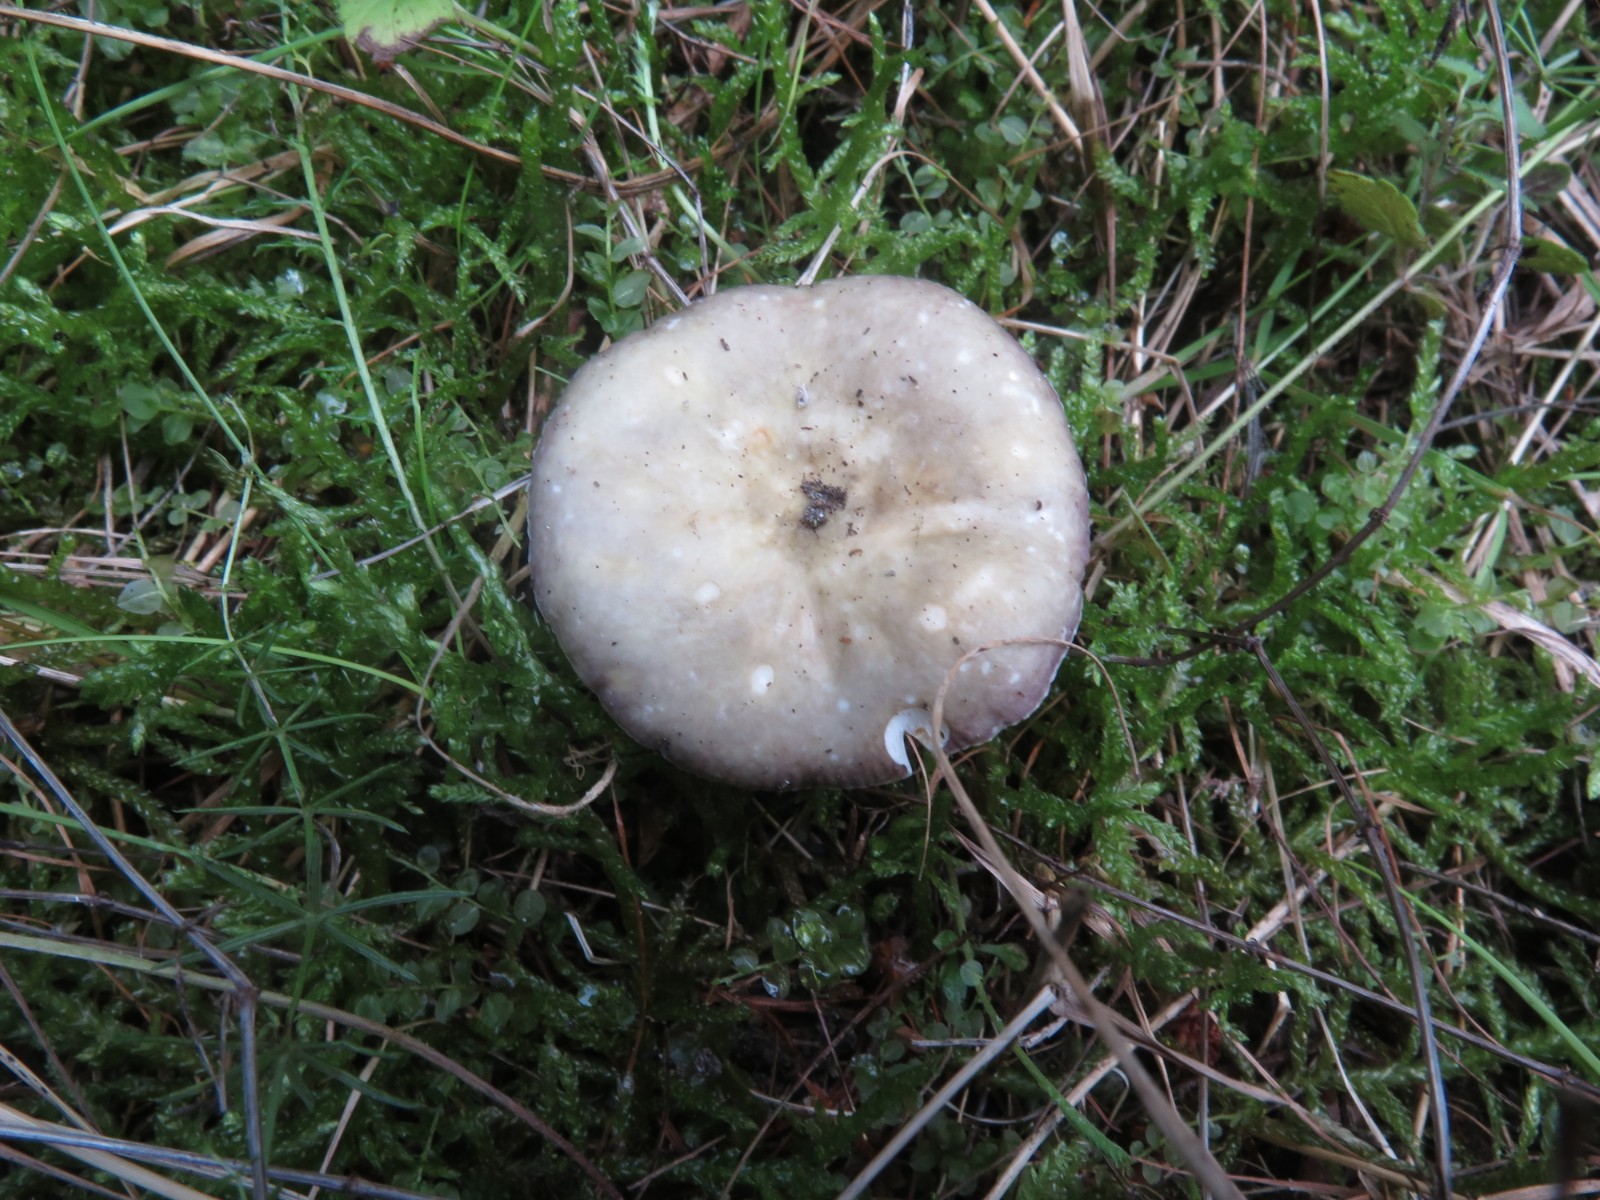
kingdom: Fungi
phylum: Basidiomycota
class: Agaricomycetes
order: Russulales
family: Russulaceae
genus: Russula
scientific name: Russula
